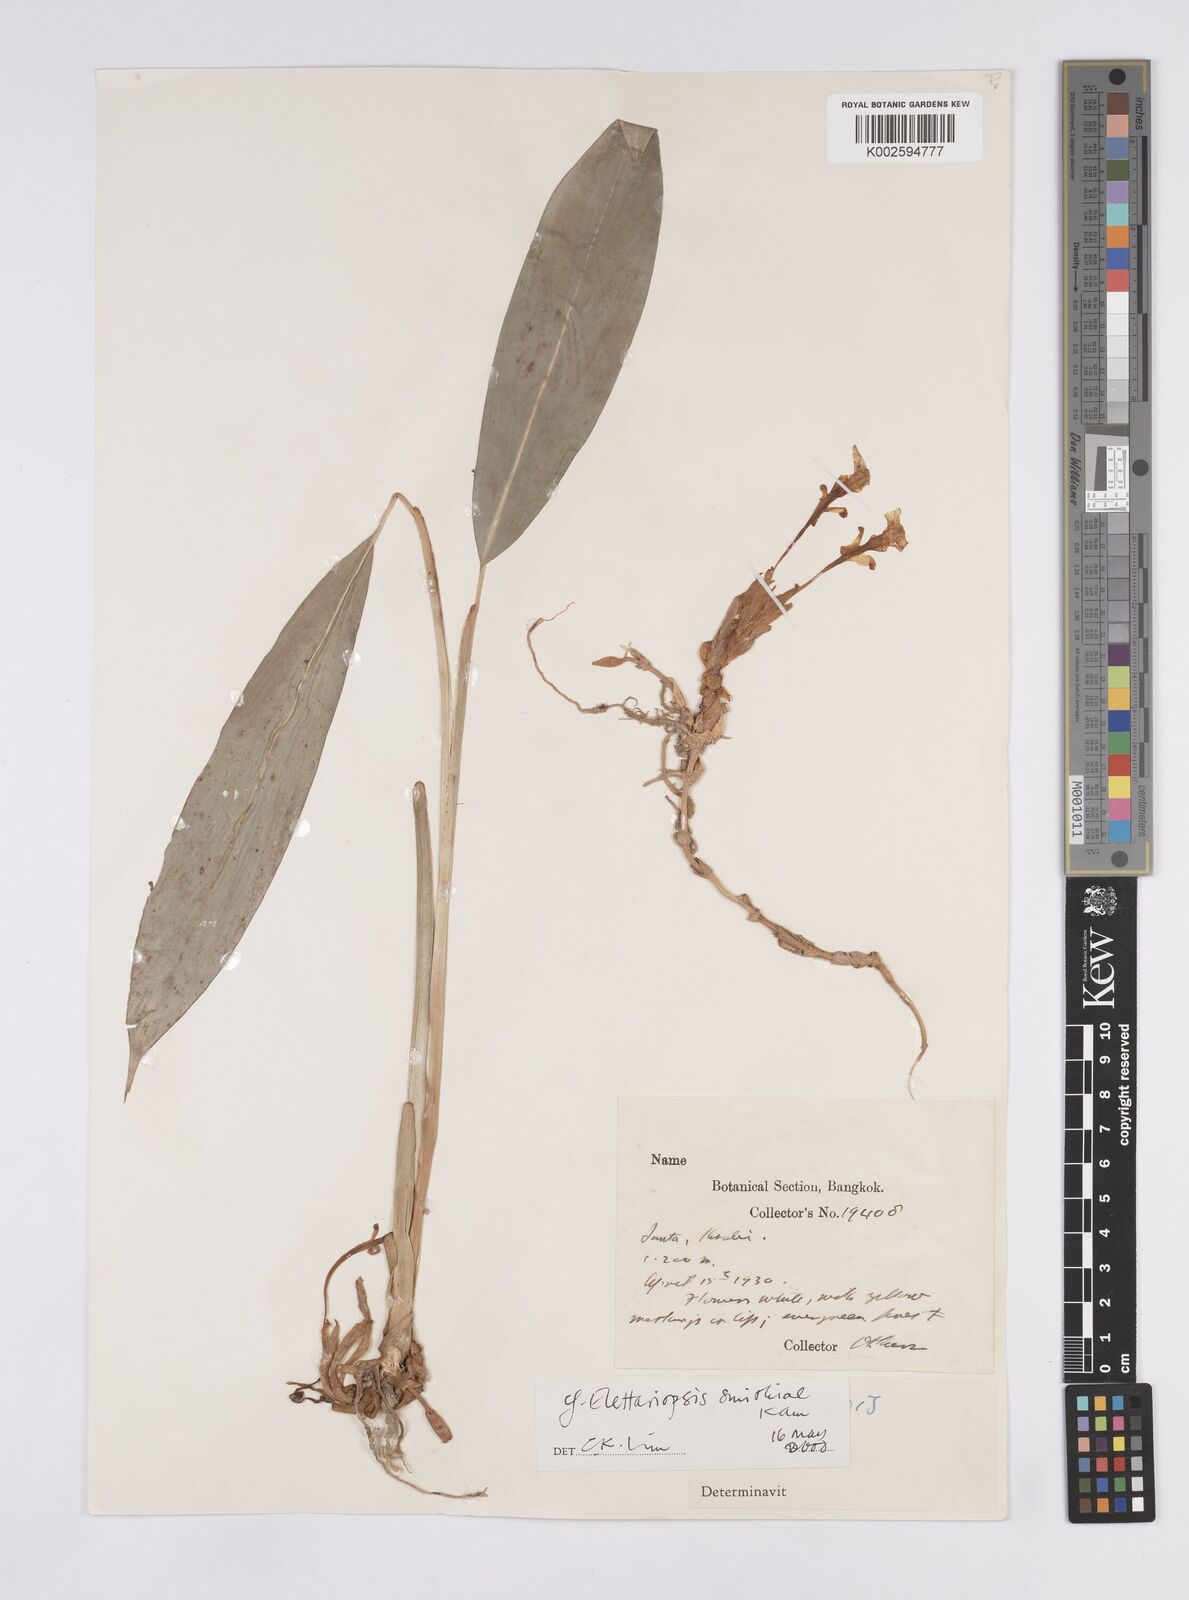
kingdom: Plantae
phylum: Tracheophyta
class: Liliopsida
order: Zingiberales
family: Zingiberaceae
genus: Amomum
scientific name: Amomum
